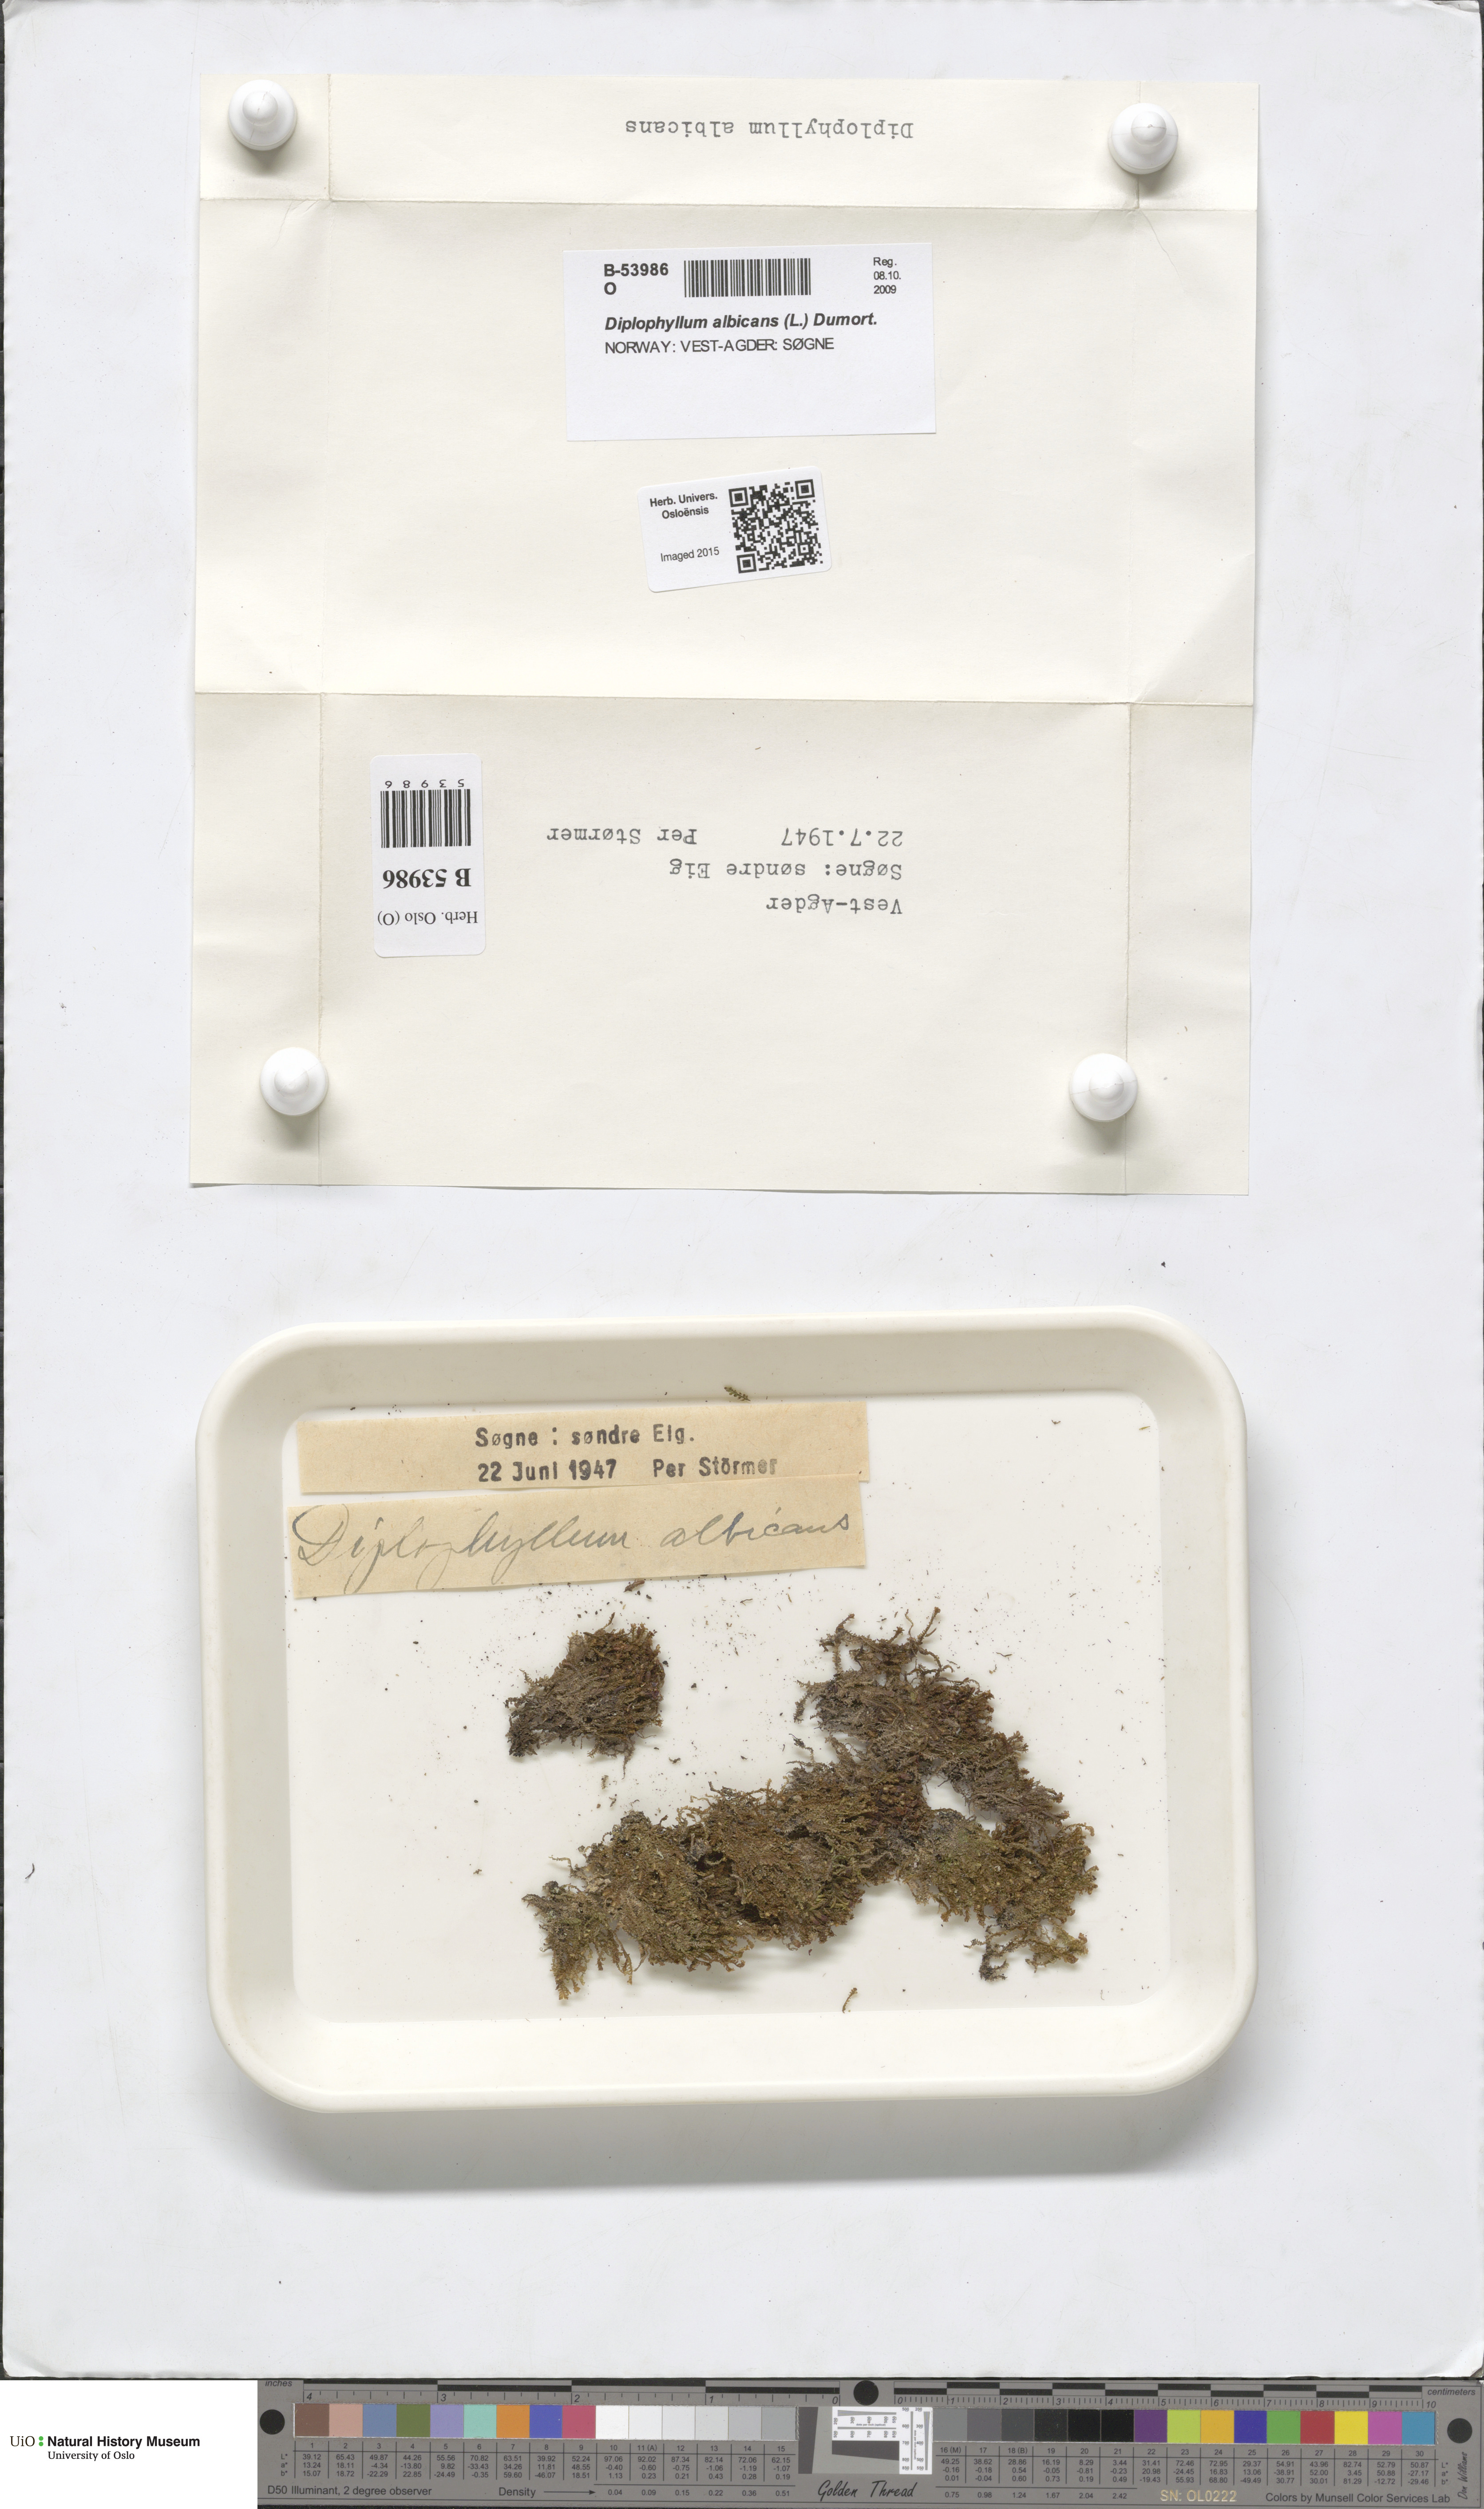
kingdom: Plantae
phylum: Marchantiophyta
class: Jungermanniopsida
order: Jungermanniales
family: Scapaniaceae
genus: Diplophyllum
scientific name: Diplophyllum albicans
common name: White earwort
